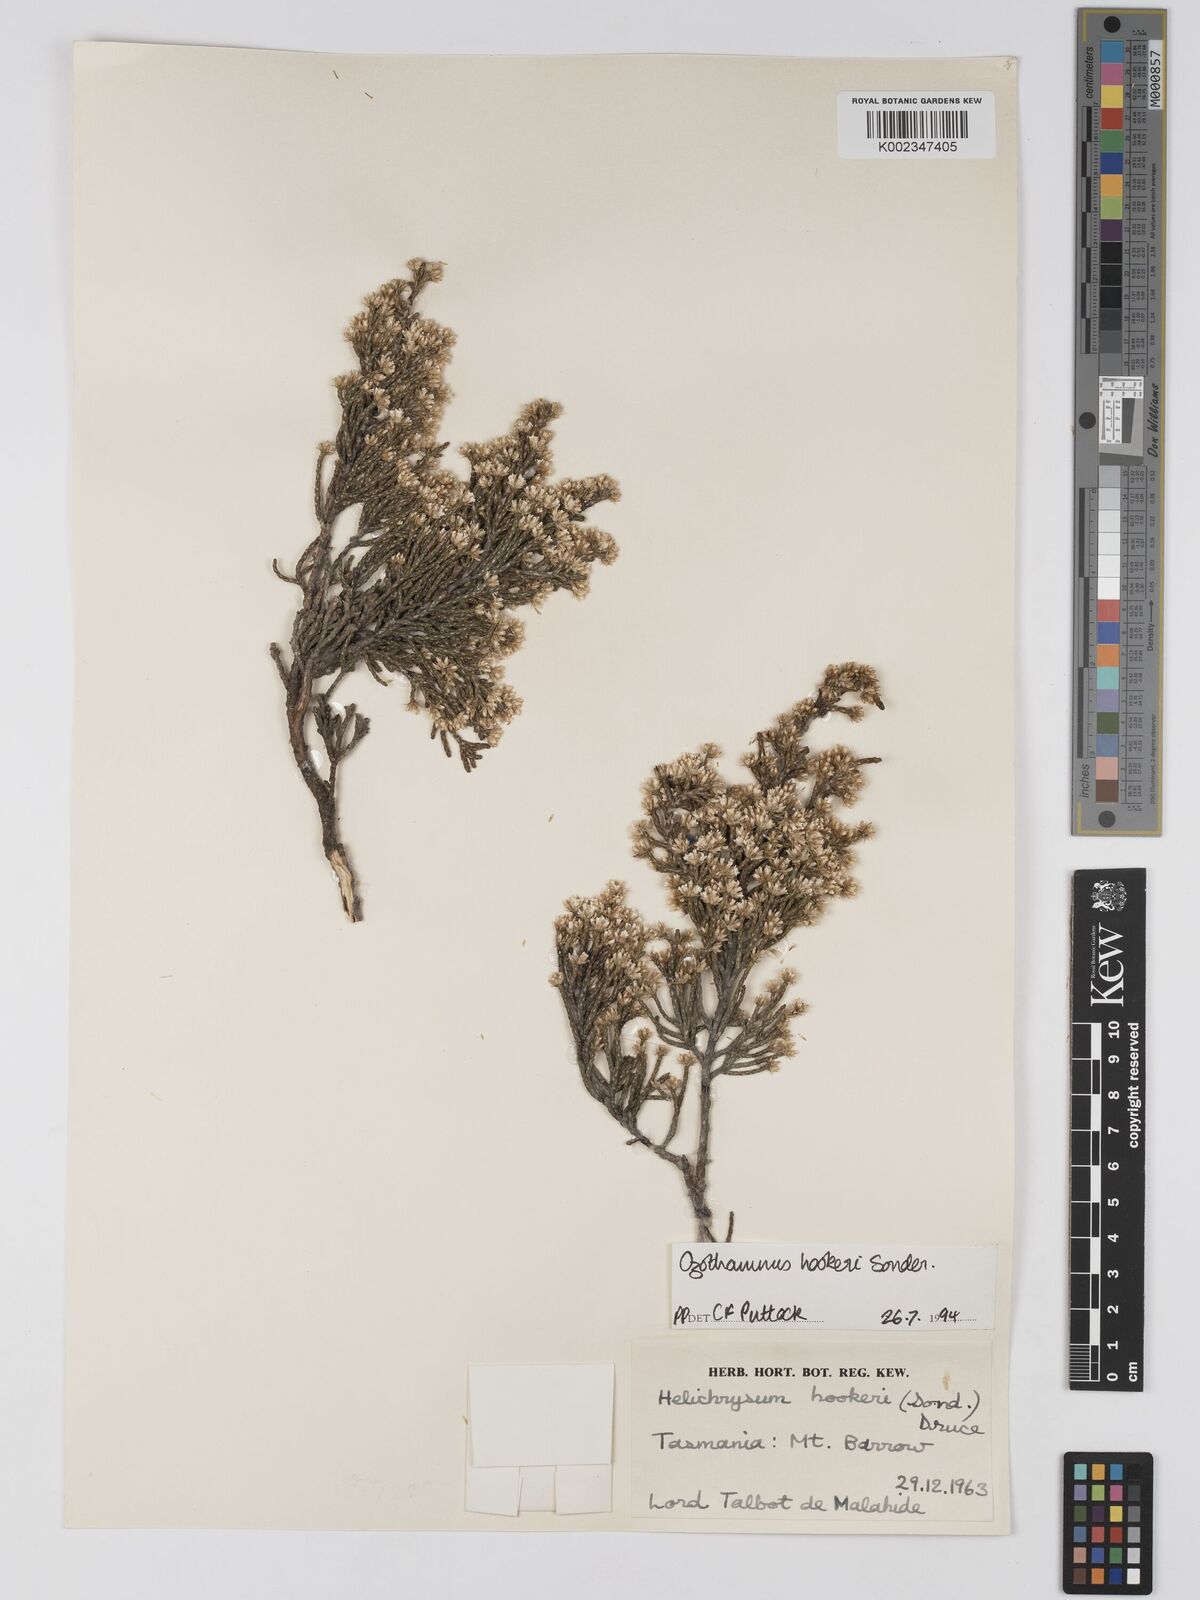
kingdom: Plantae
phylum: Tracheophyta
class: Magnoliopsida
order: Asterales
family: Asteraceae
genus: Ozothamnus
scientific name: Ozothamnus hookeri
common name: Kerosene-bush
